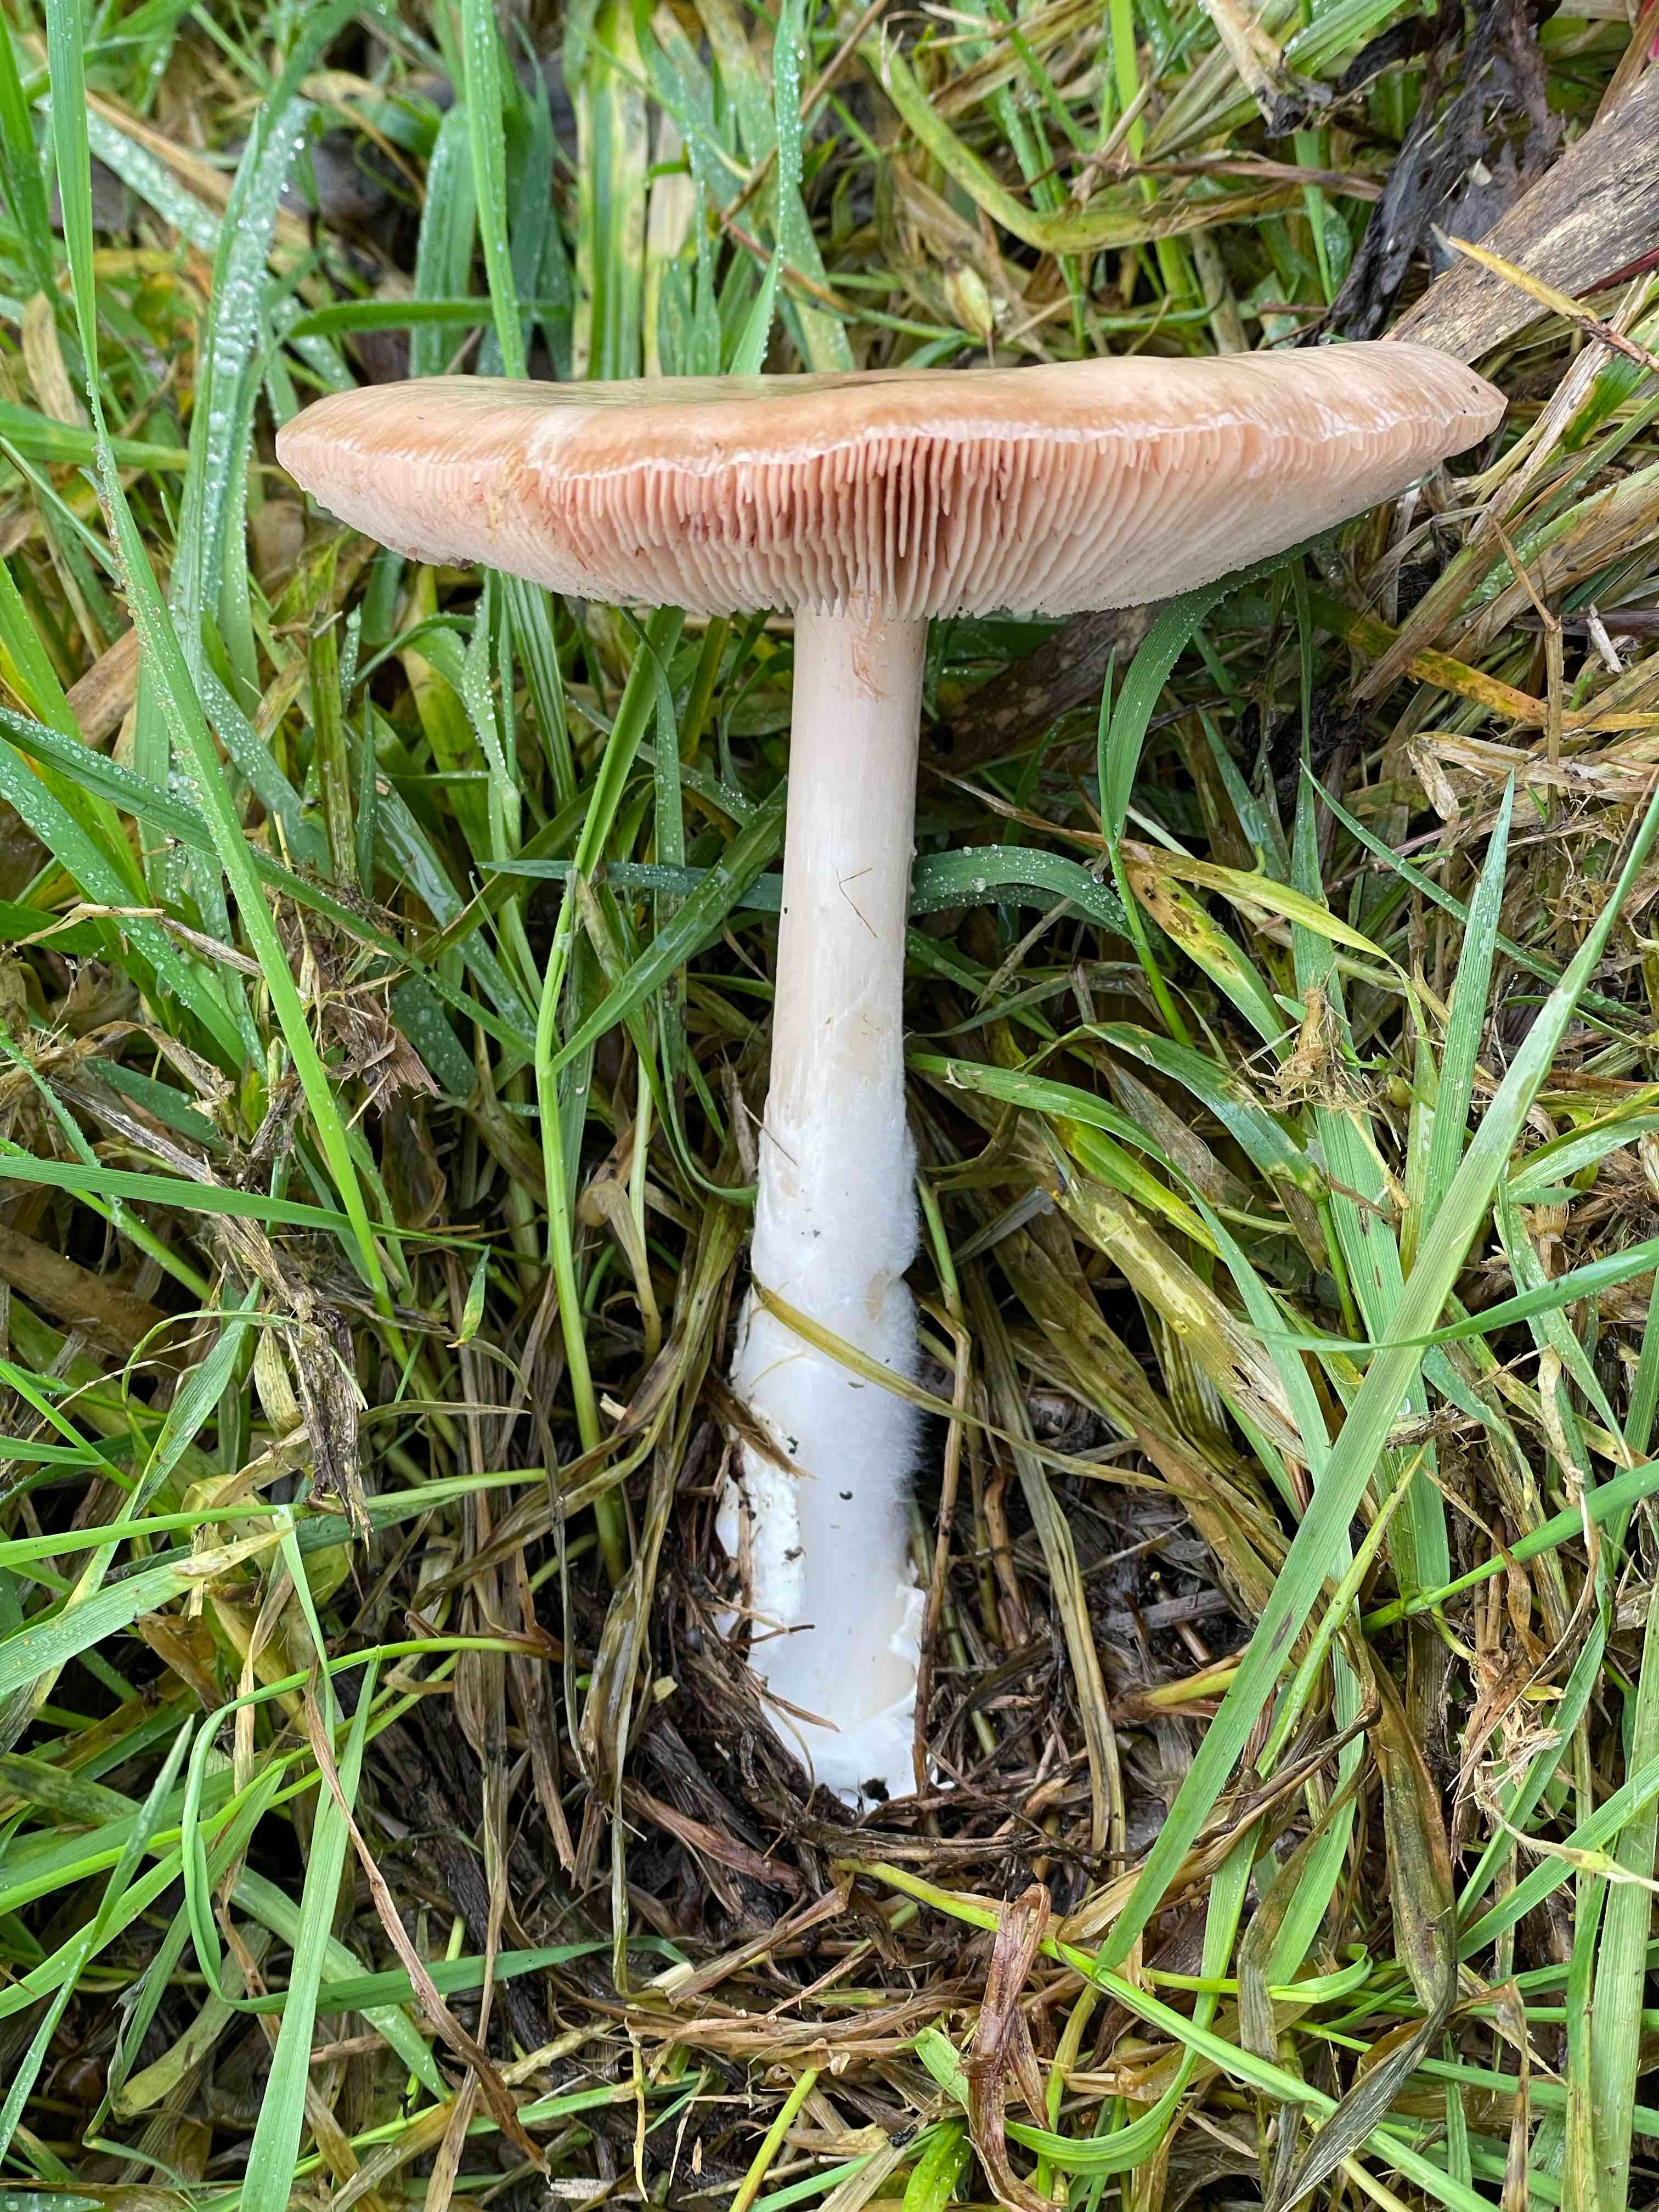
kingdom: Fungi
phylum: Basidiomycota
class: Agaricomycetes
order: Agaricales
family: Pluteaceae
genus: Volvopluteus
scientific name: Volvopluteus gloiocephalus
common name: høj posesvamp
